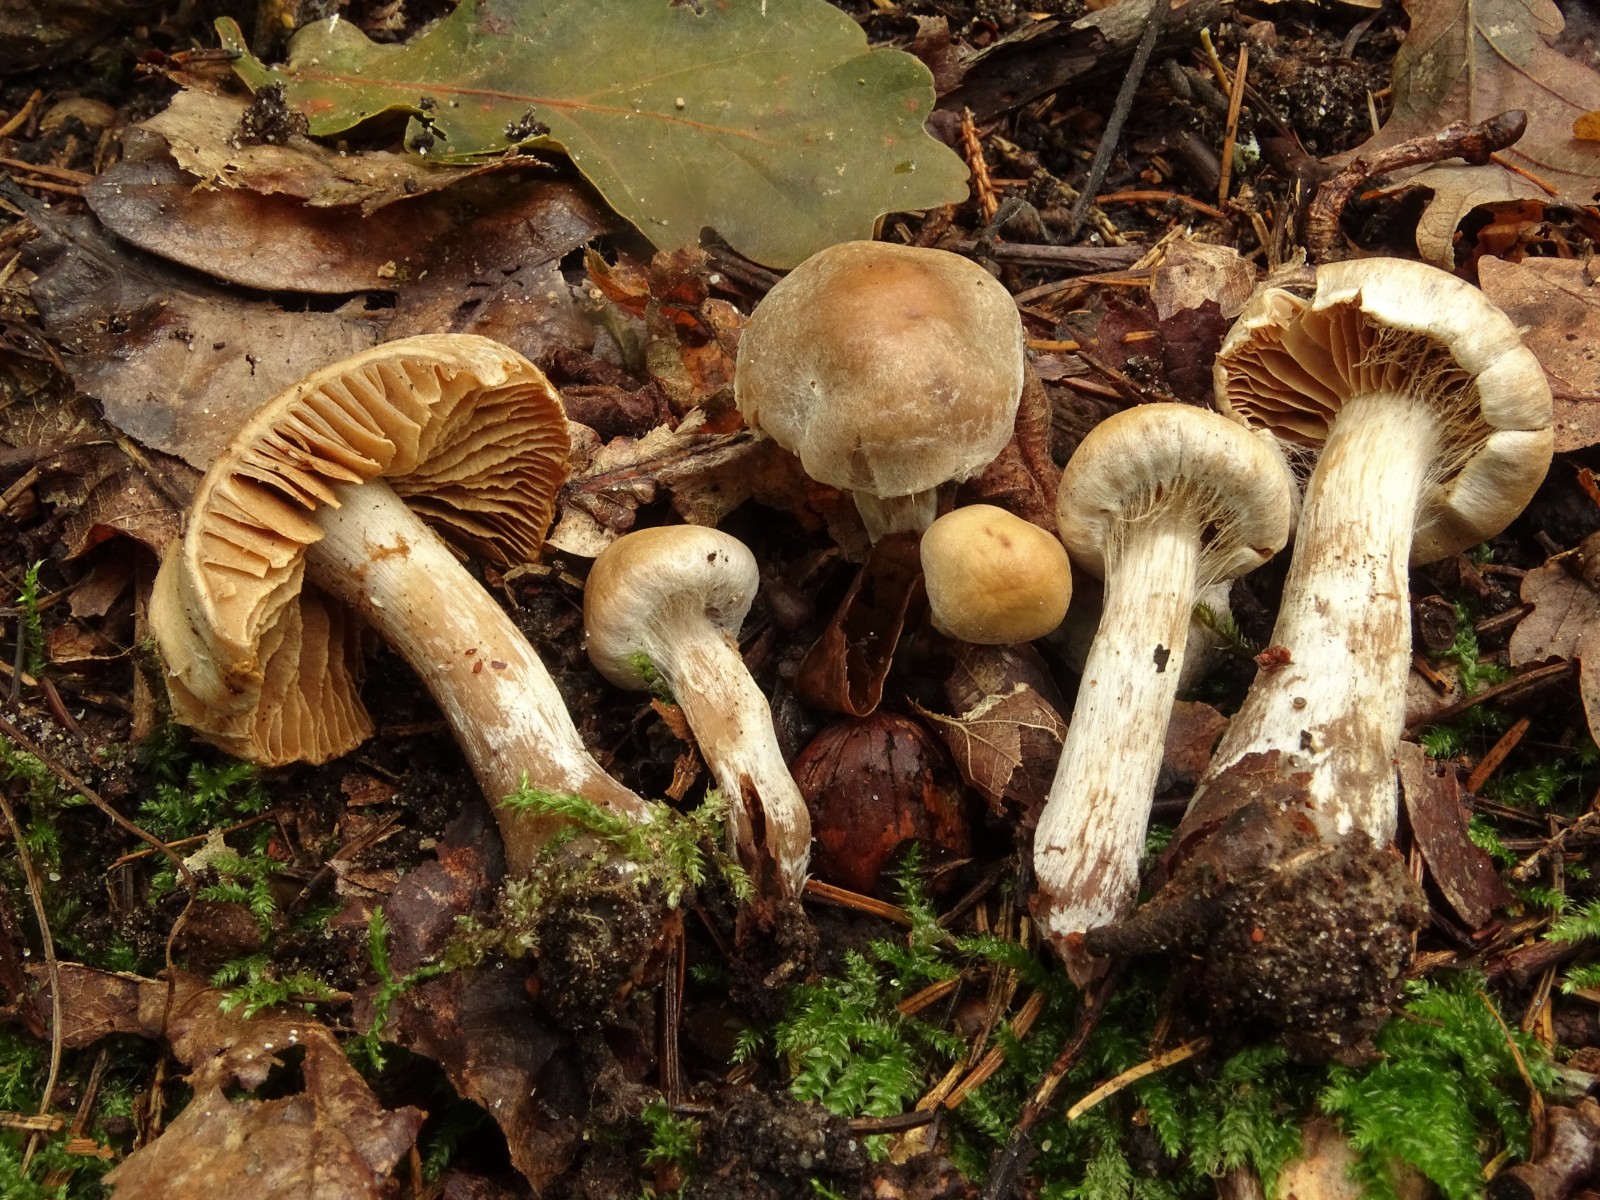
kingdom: Fungi
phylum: Basidiomycota
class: Agaricomycetes
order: Agaricales
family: Cortinariaceae
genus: Cortinarius
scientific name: Cortinarius
